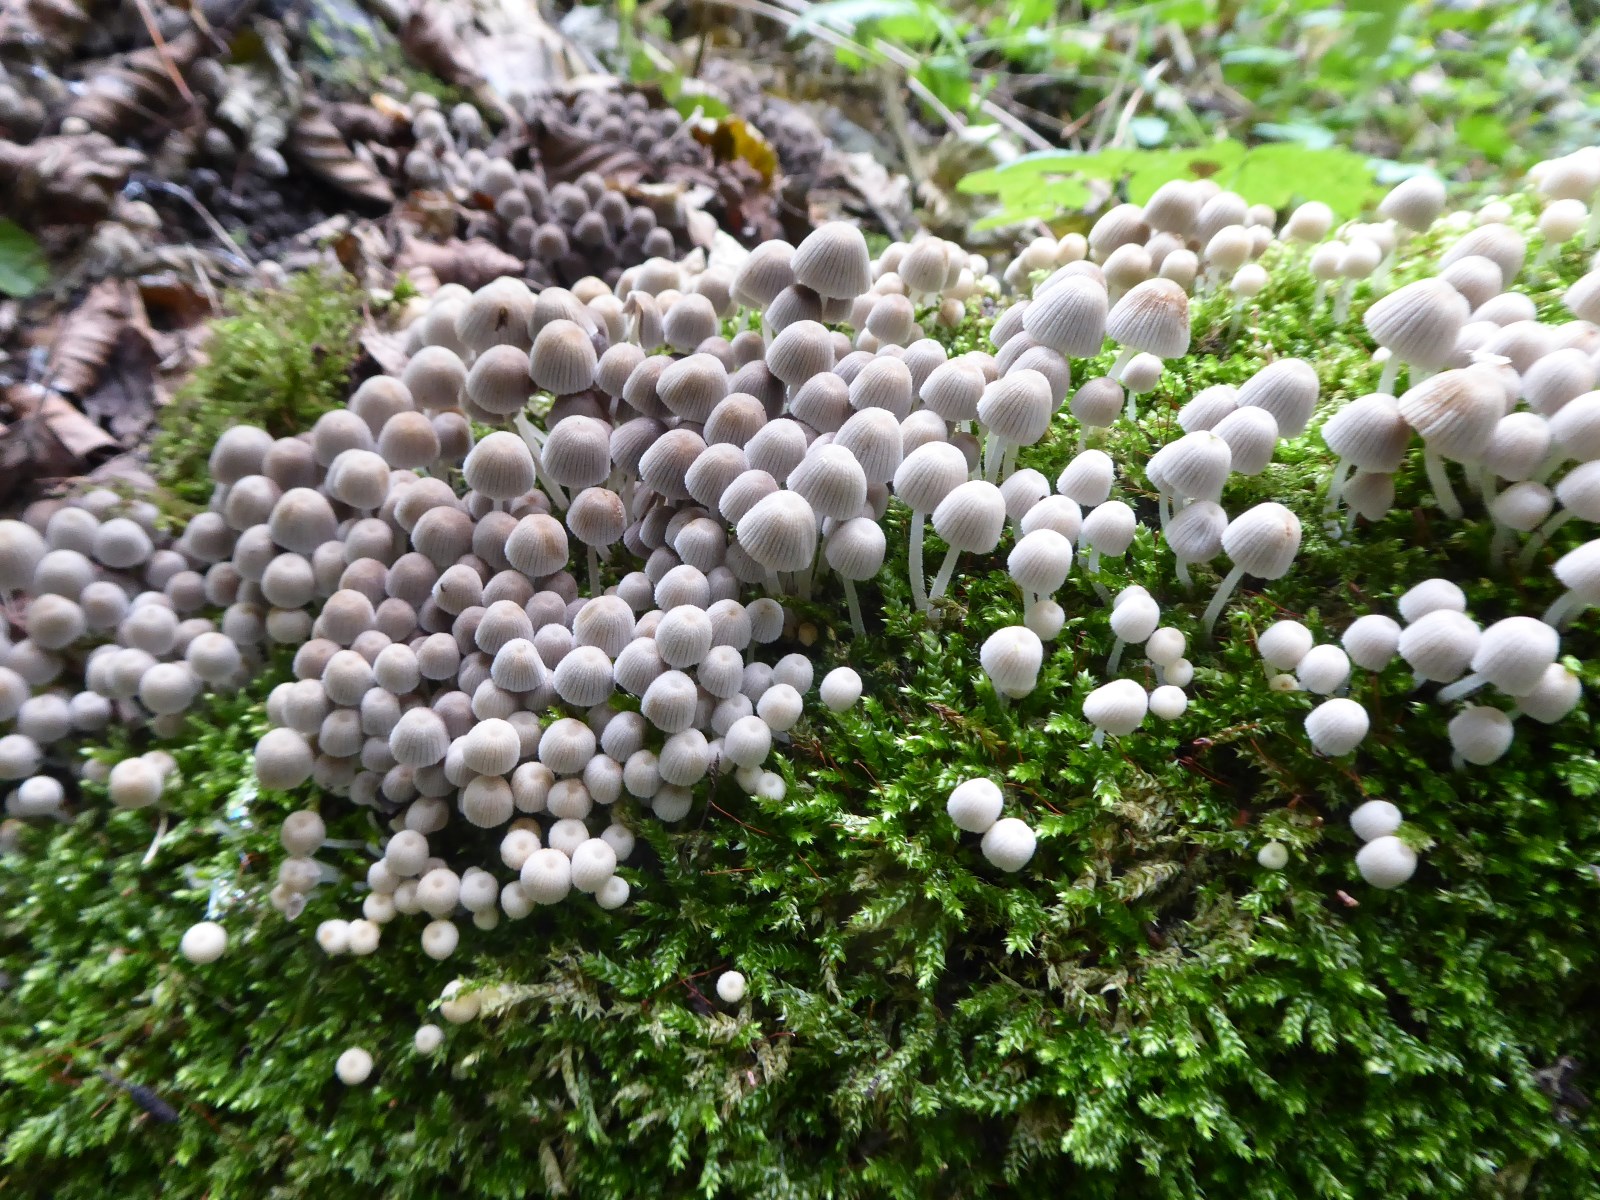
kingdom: Fungi
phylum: Basidiomycota
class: Agaricomycetes
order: Agaricales
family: Psathyrellaceae
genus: Coprinellus
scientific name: Coprinellus disseminatus
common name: bredsået blækhat
